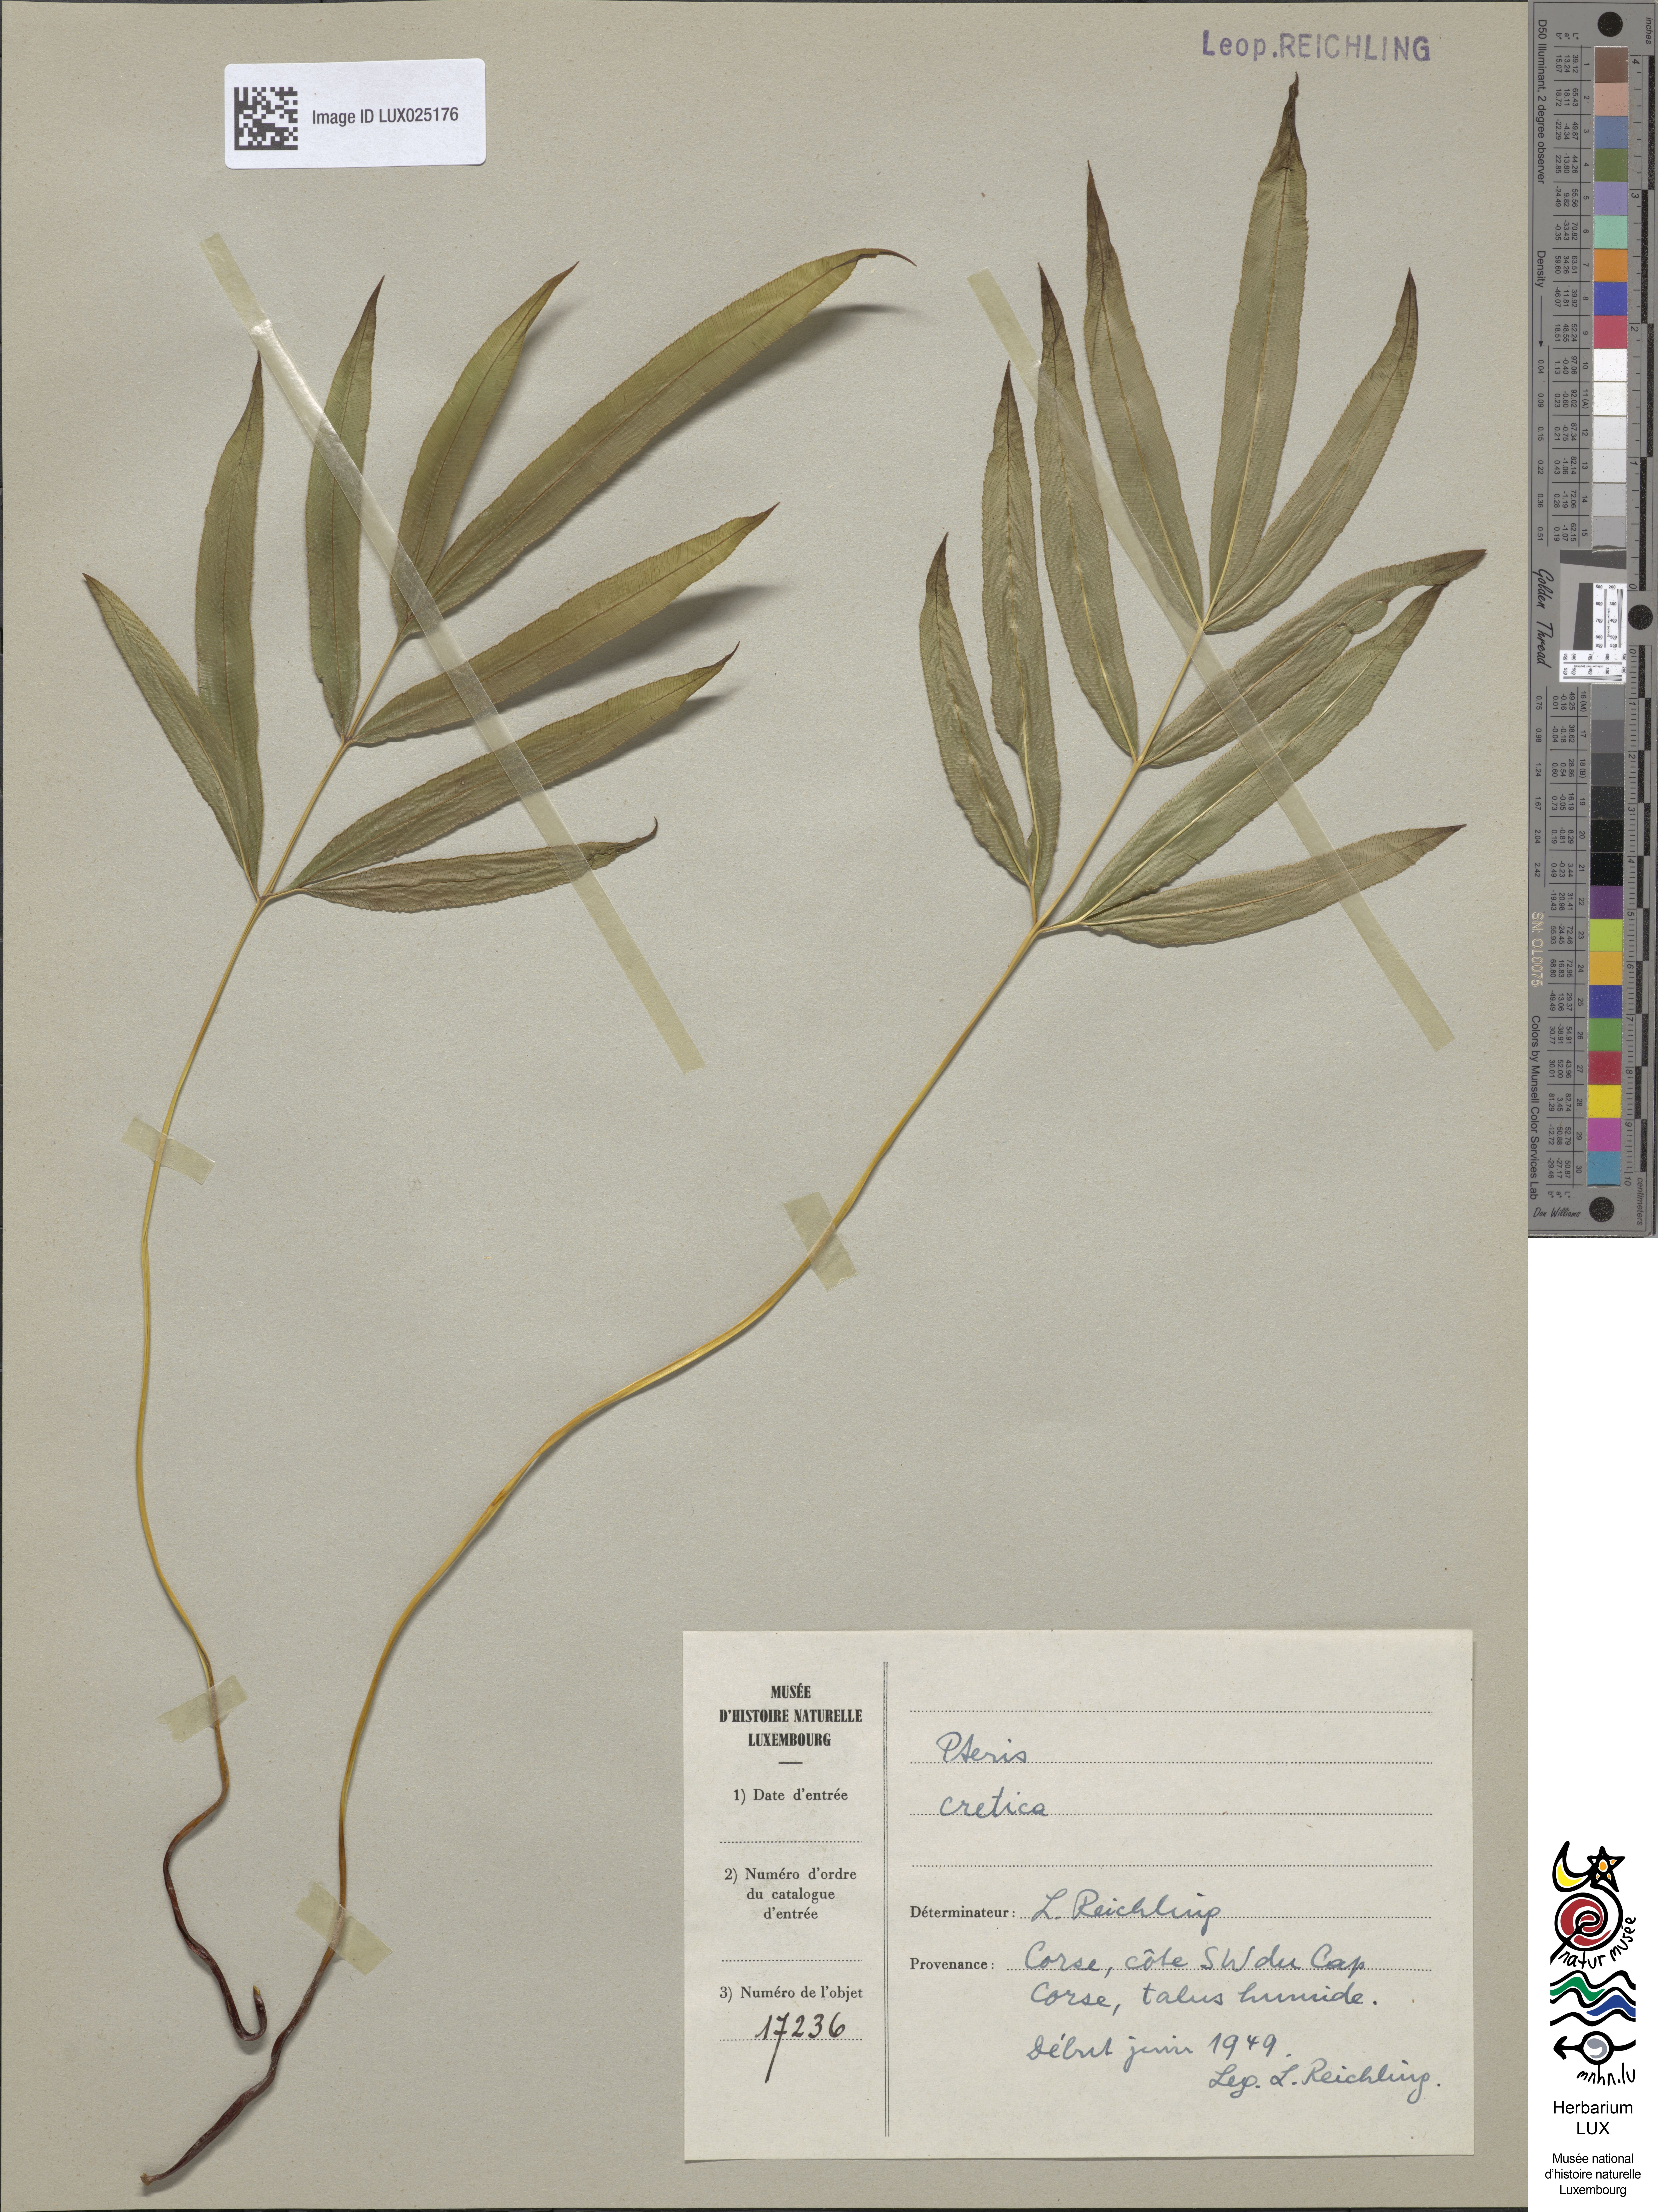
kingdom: Plantae
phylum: Tracheophyta
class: Polypodiopsida
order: Polypodiales
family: Pteridaceae
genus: Pteris
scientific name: Pteris cretica
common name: Ribbon fern
